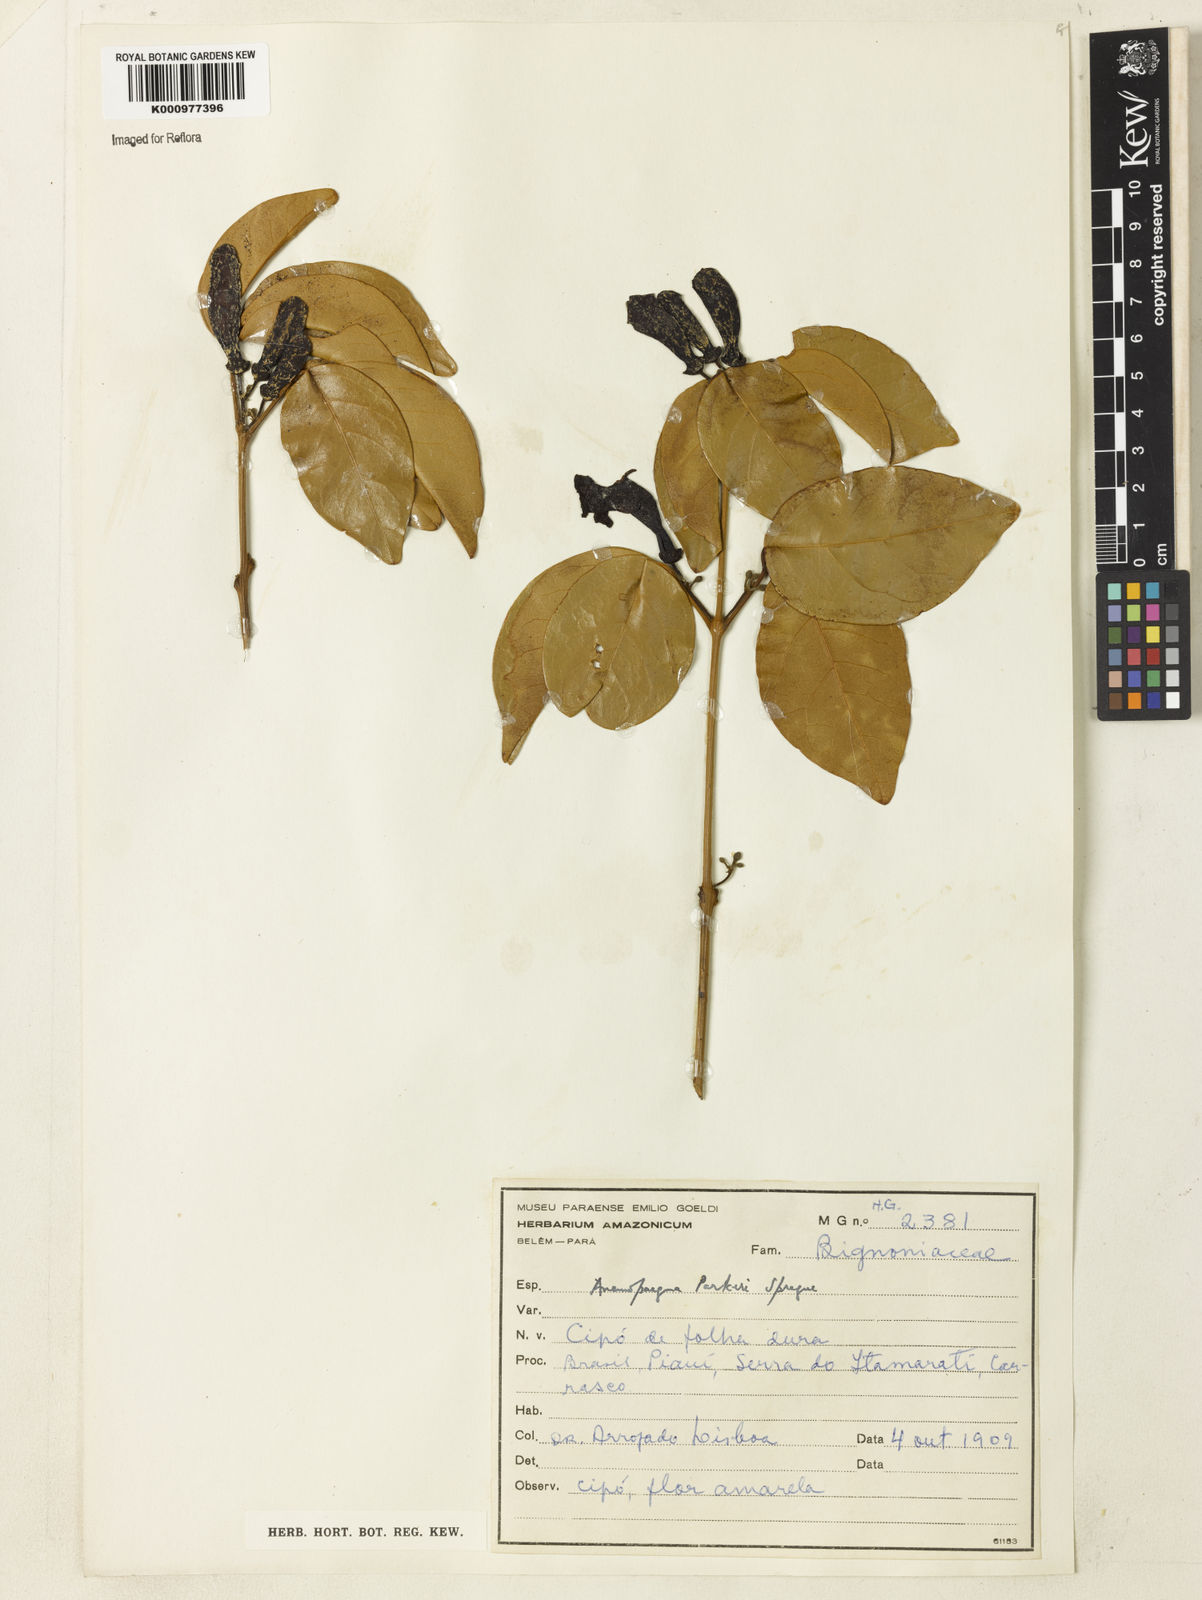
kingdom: Plantae
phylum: Tracheophyta
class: Magnoliopsida
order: Lamiales
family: Bignoniaceae
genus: Anemopaegma
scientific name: Anemopaegma parkeri
